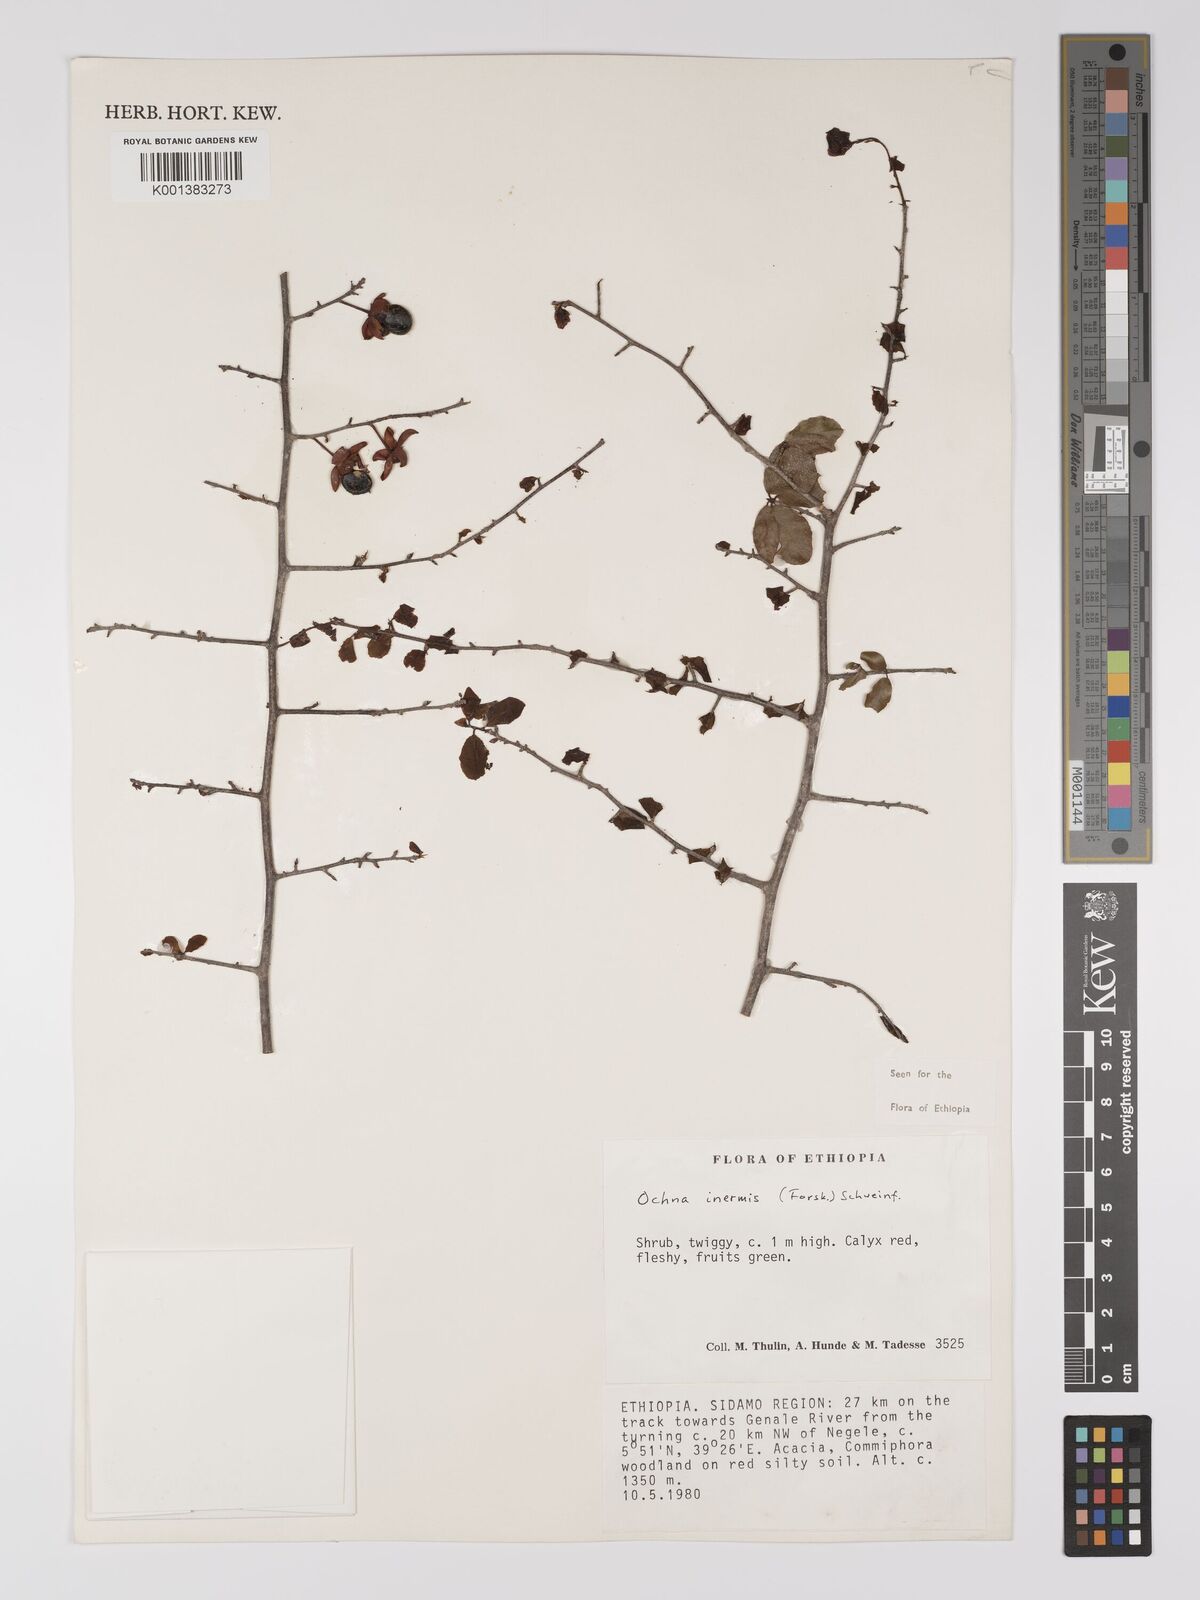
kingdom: Plantae
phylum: Tracheophyta
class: Magnoliopsida
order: Malpighiales
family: Ochnaceae
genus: Ochna
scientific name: Ochna inermis
